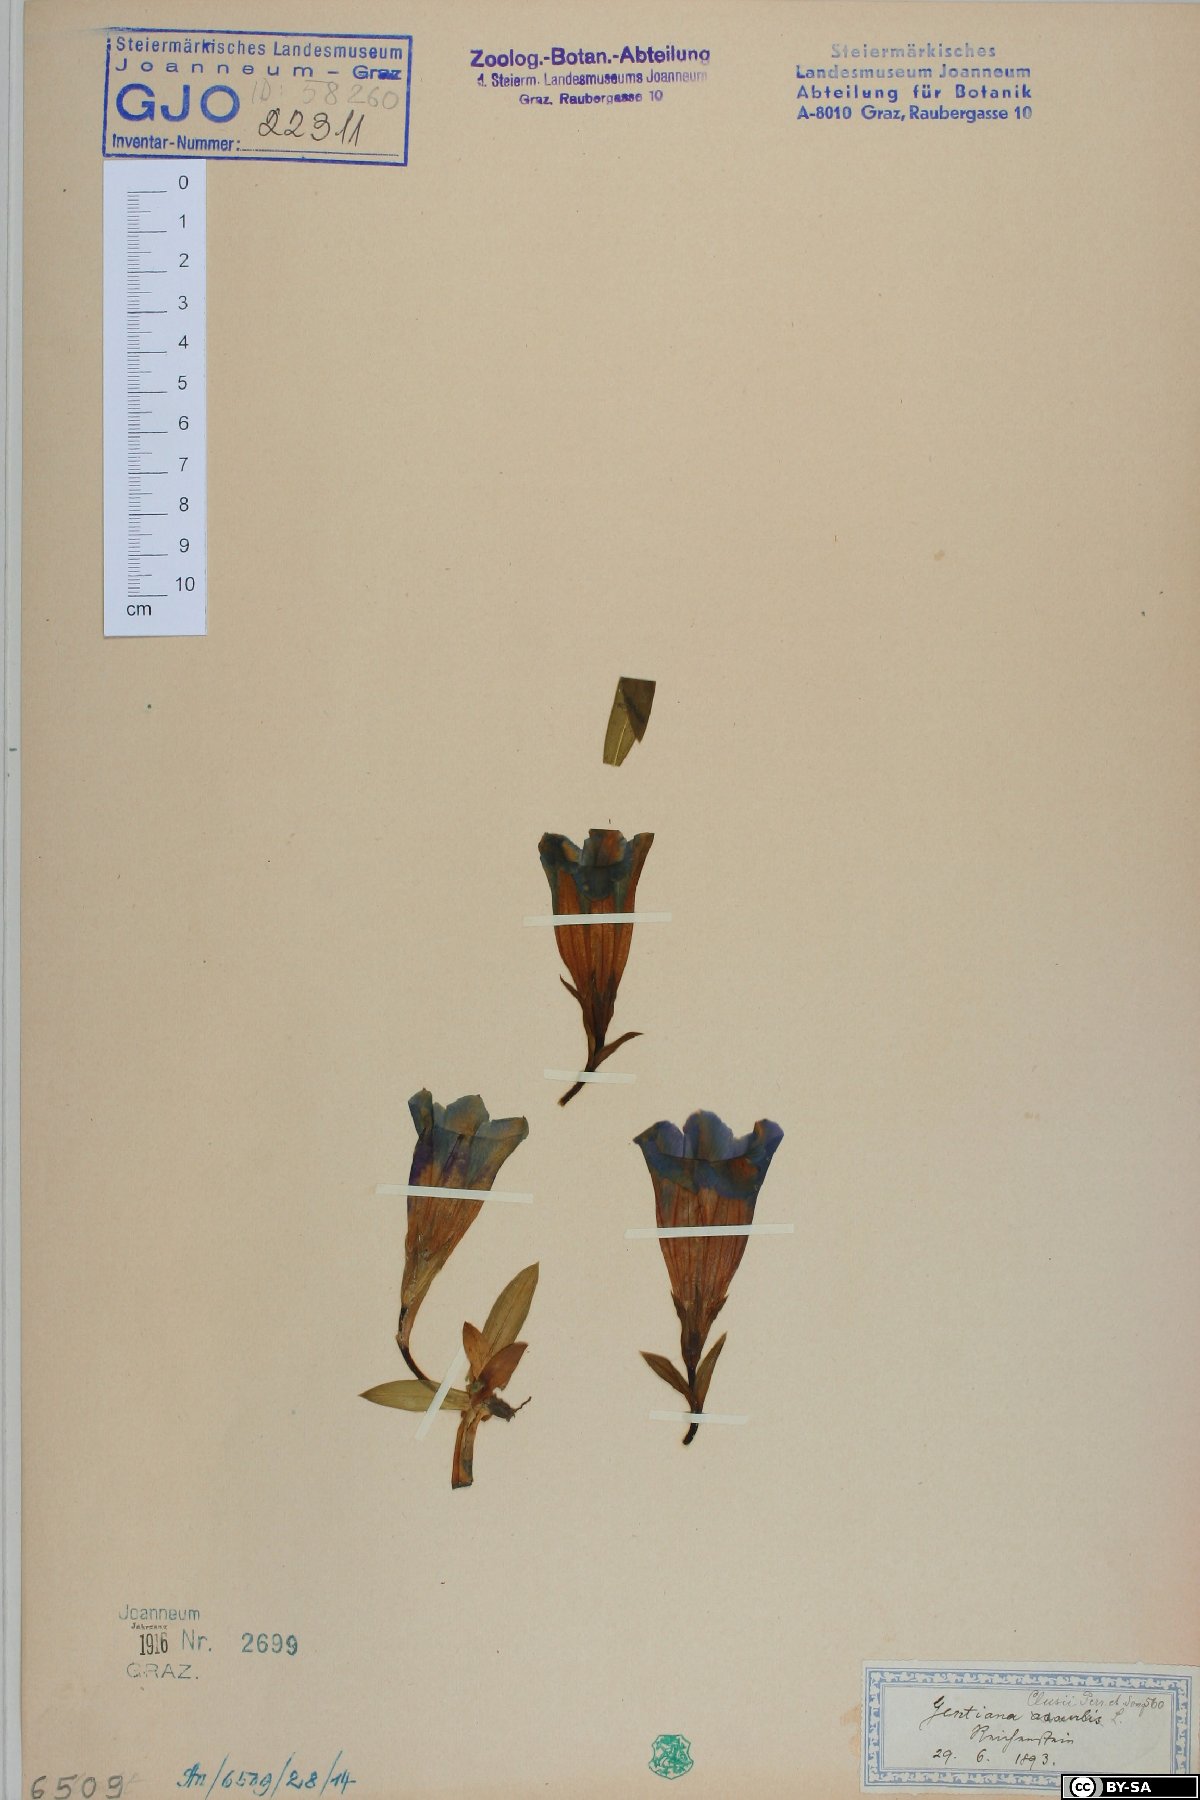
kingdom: Plantae
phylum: Tracheophyta
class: Magnoliopsida
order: Gentianales
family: Gentianaceae
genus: Gentiana
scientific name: Gentiana clusii
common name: Trumpet gentian
